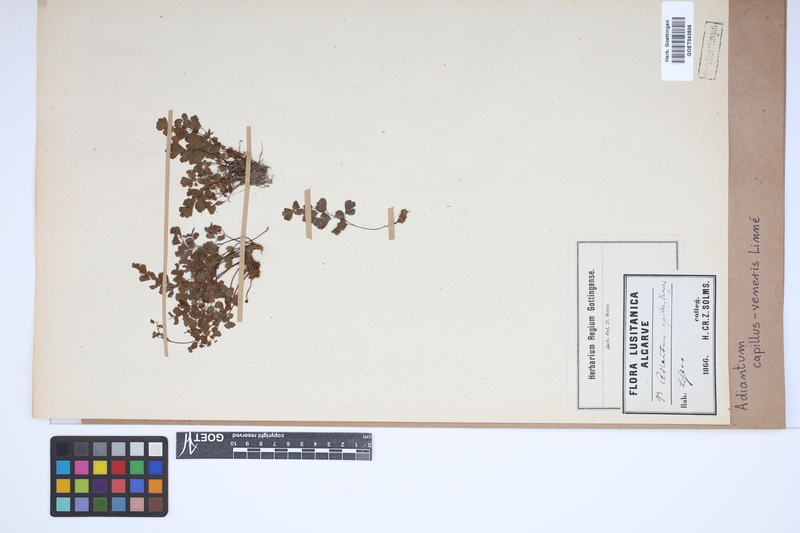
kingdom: Plantae
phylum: Tracheophyta
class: Polypodiopsida
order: Polypodiales
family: Pteridaceae
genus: Adiantum
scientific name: Adiantum capillus-veneris
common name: Maidenhair fern
